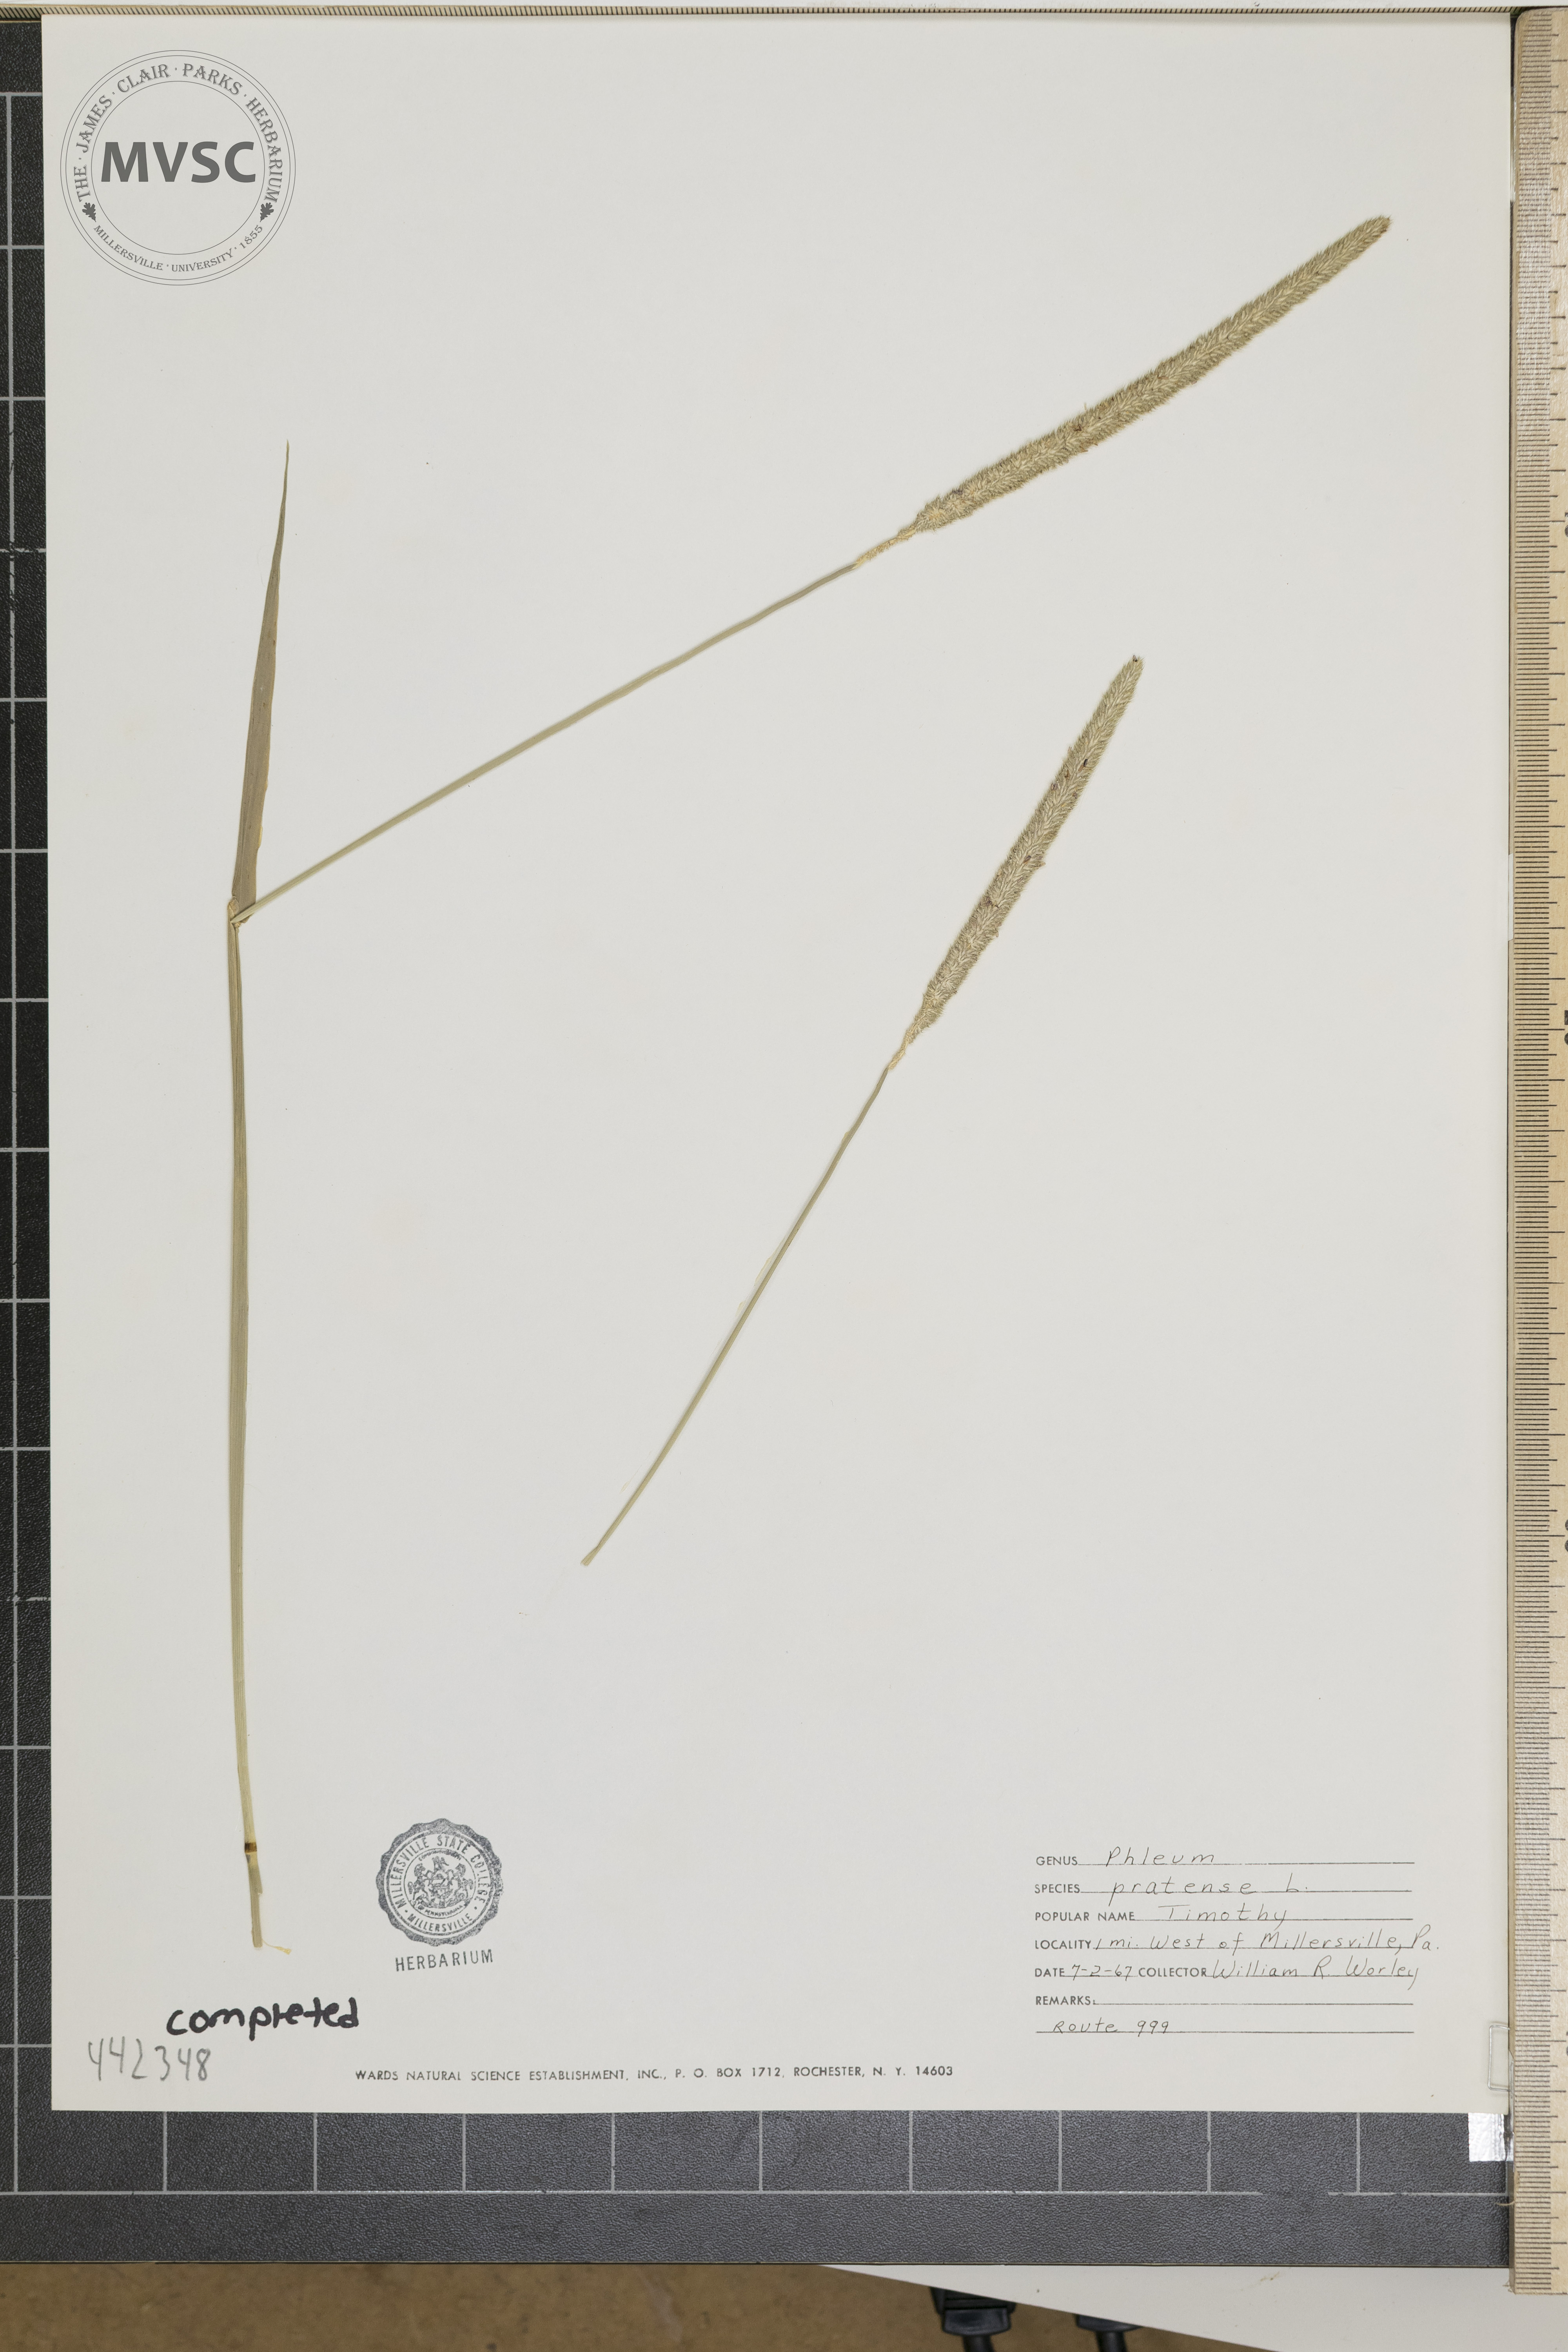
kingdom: Plantae
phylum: Tracheophyta
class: Liliopsida
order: Poales
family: Poaceae
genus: Phleum
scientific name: Phleum pratense
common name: Timothy
